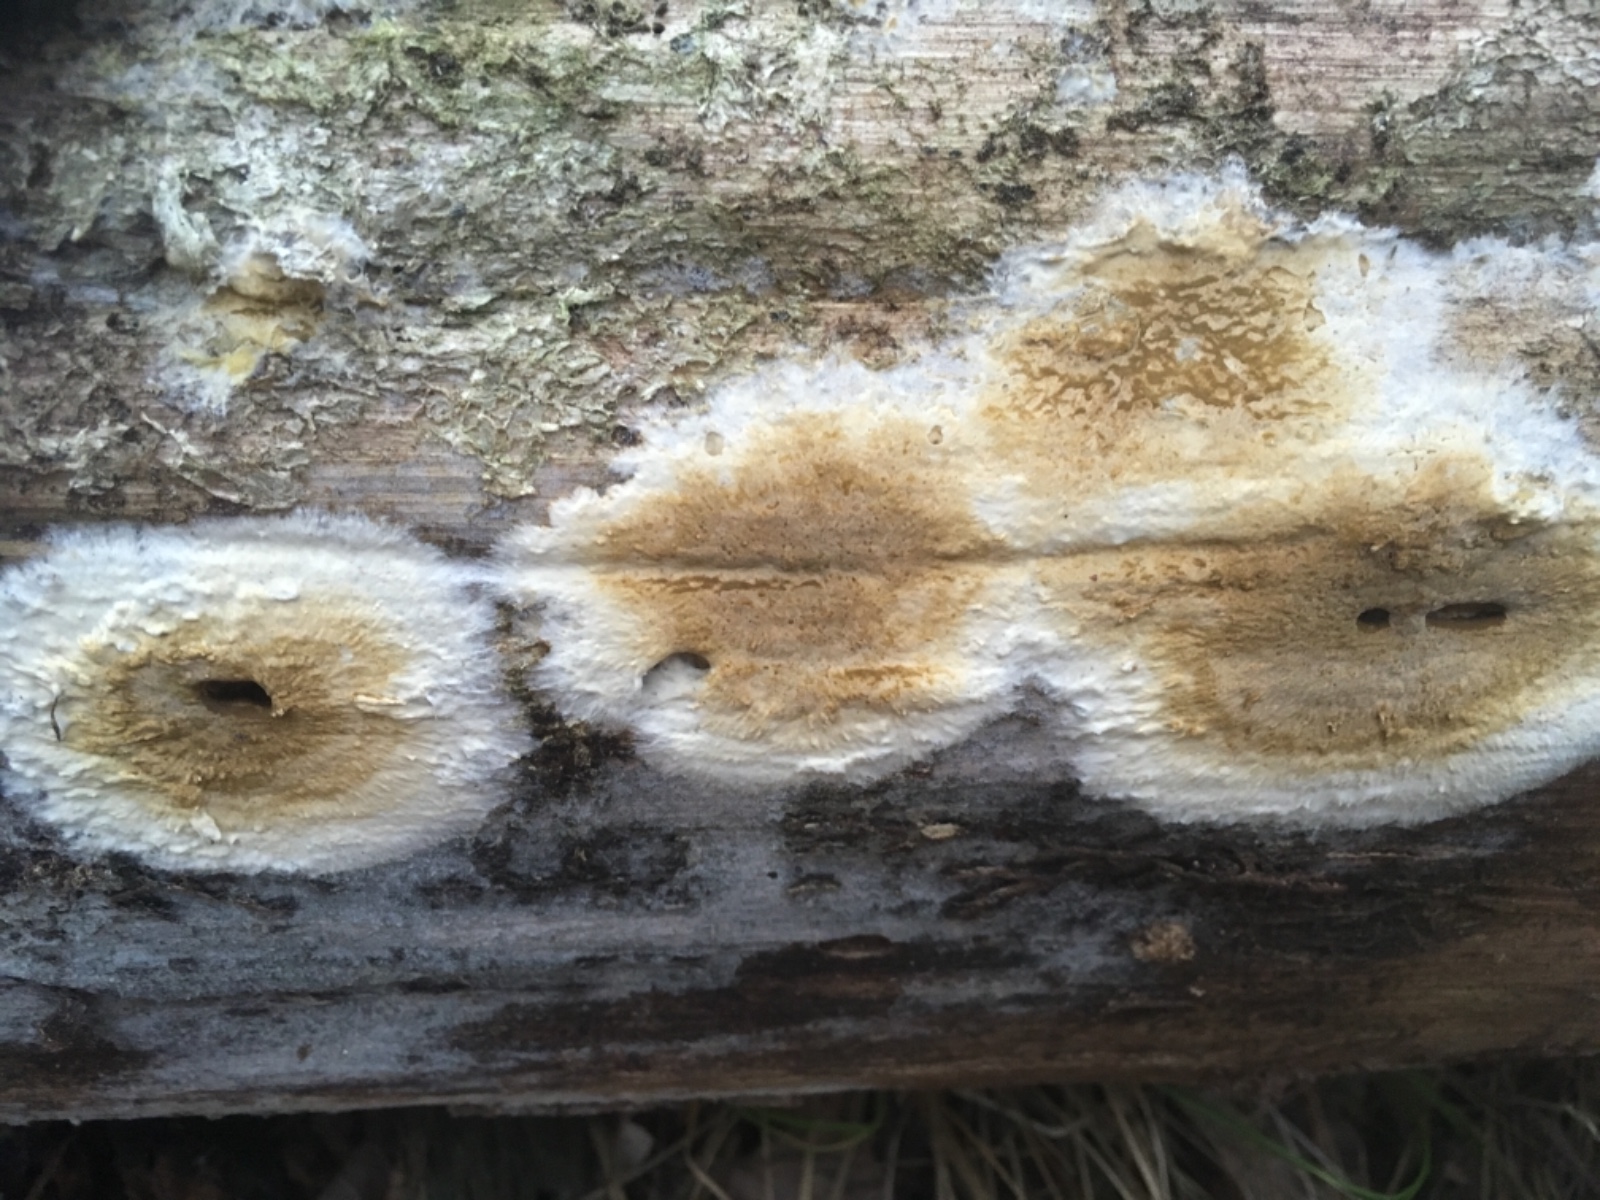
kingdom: Fungi
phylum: Basidiomycota
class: Agaricomycetes
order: Boletales
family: Coniophoraceae
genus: Coniophora
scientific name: Coniophora puteana
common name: gul tømmersvamp
